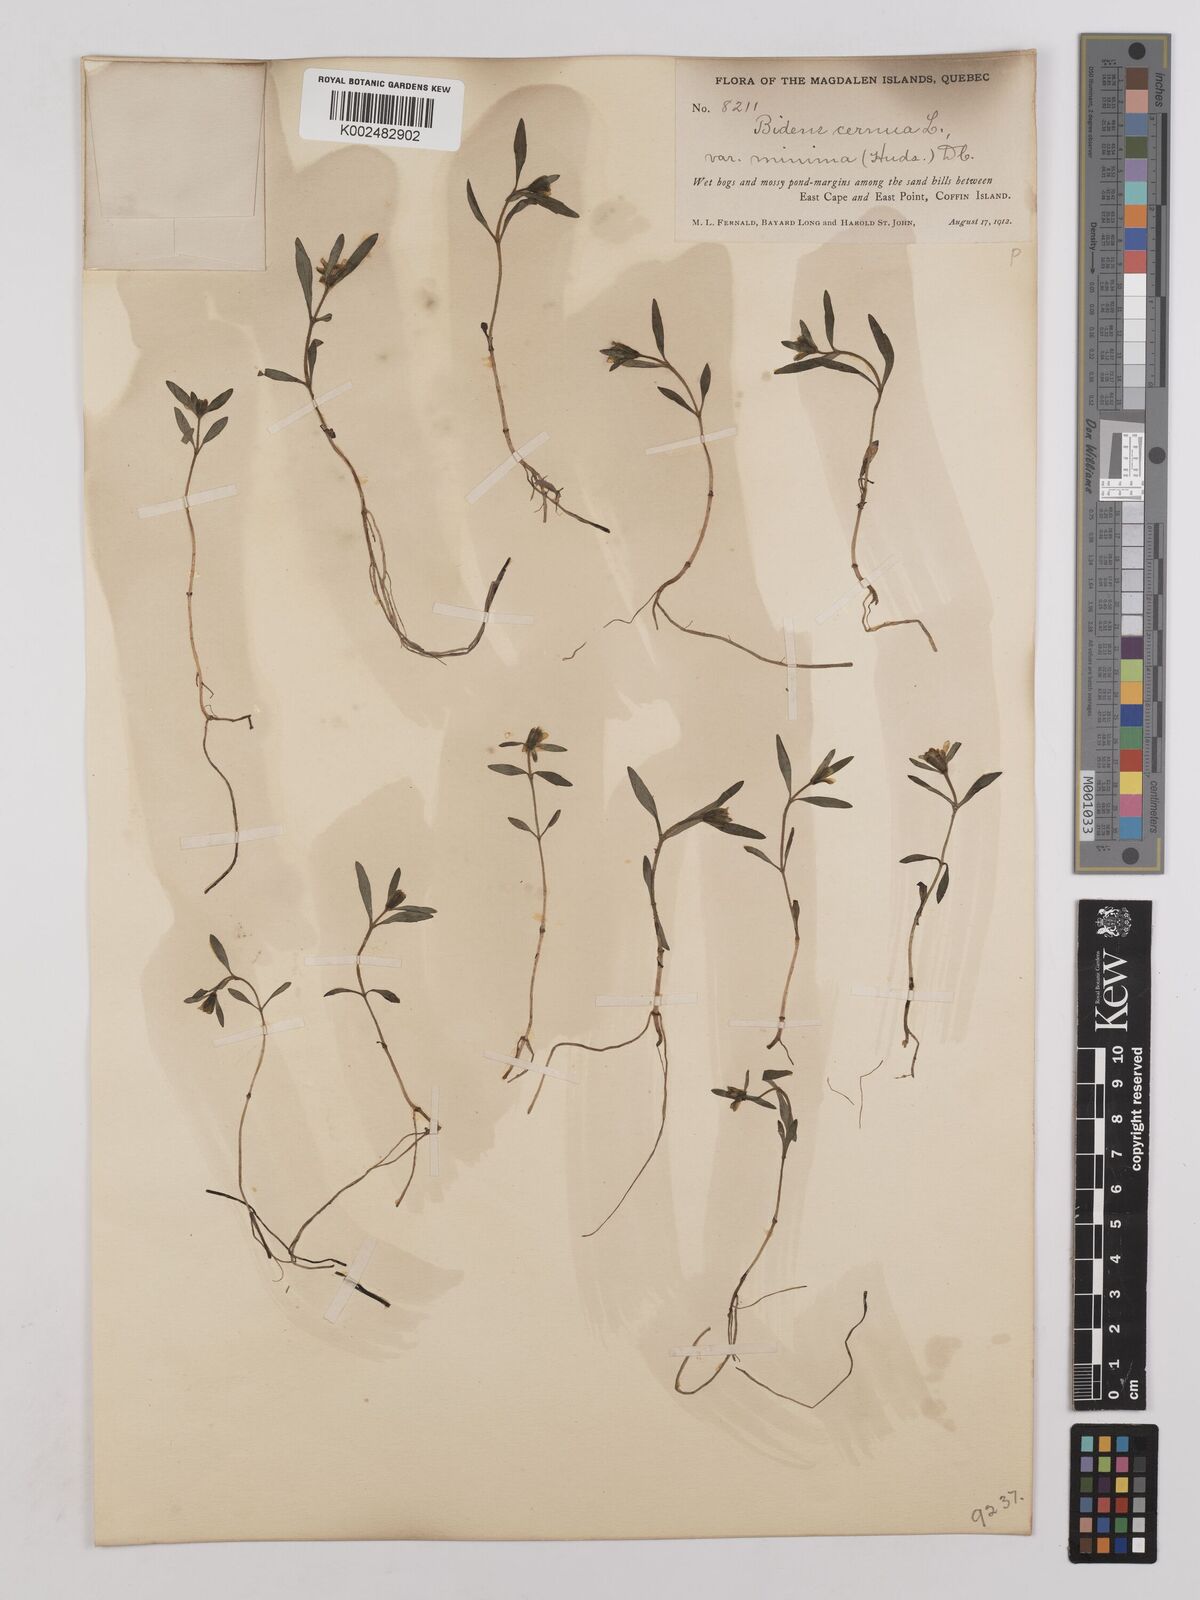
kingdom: Plantae
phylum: Tracheophyta
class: Magnoliopsida
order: Asterales
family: Asteraceae
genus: Bidens
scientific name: Bidens
